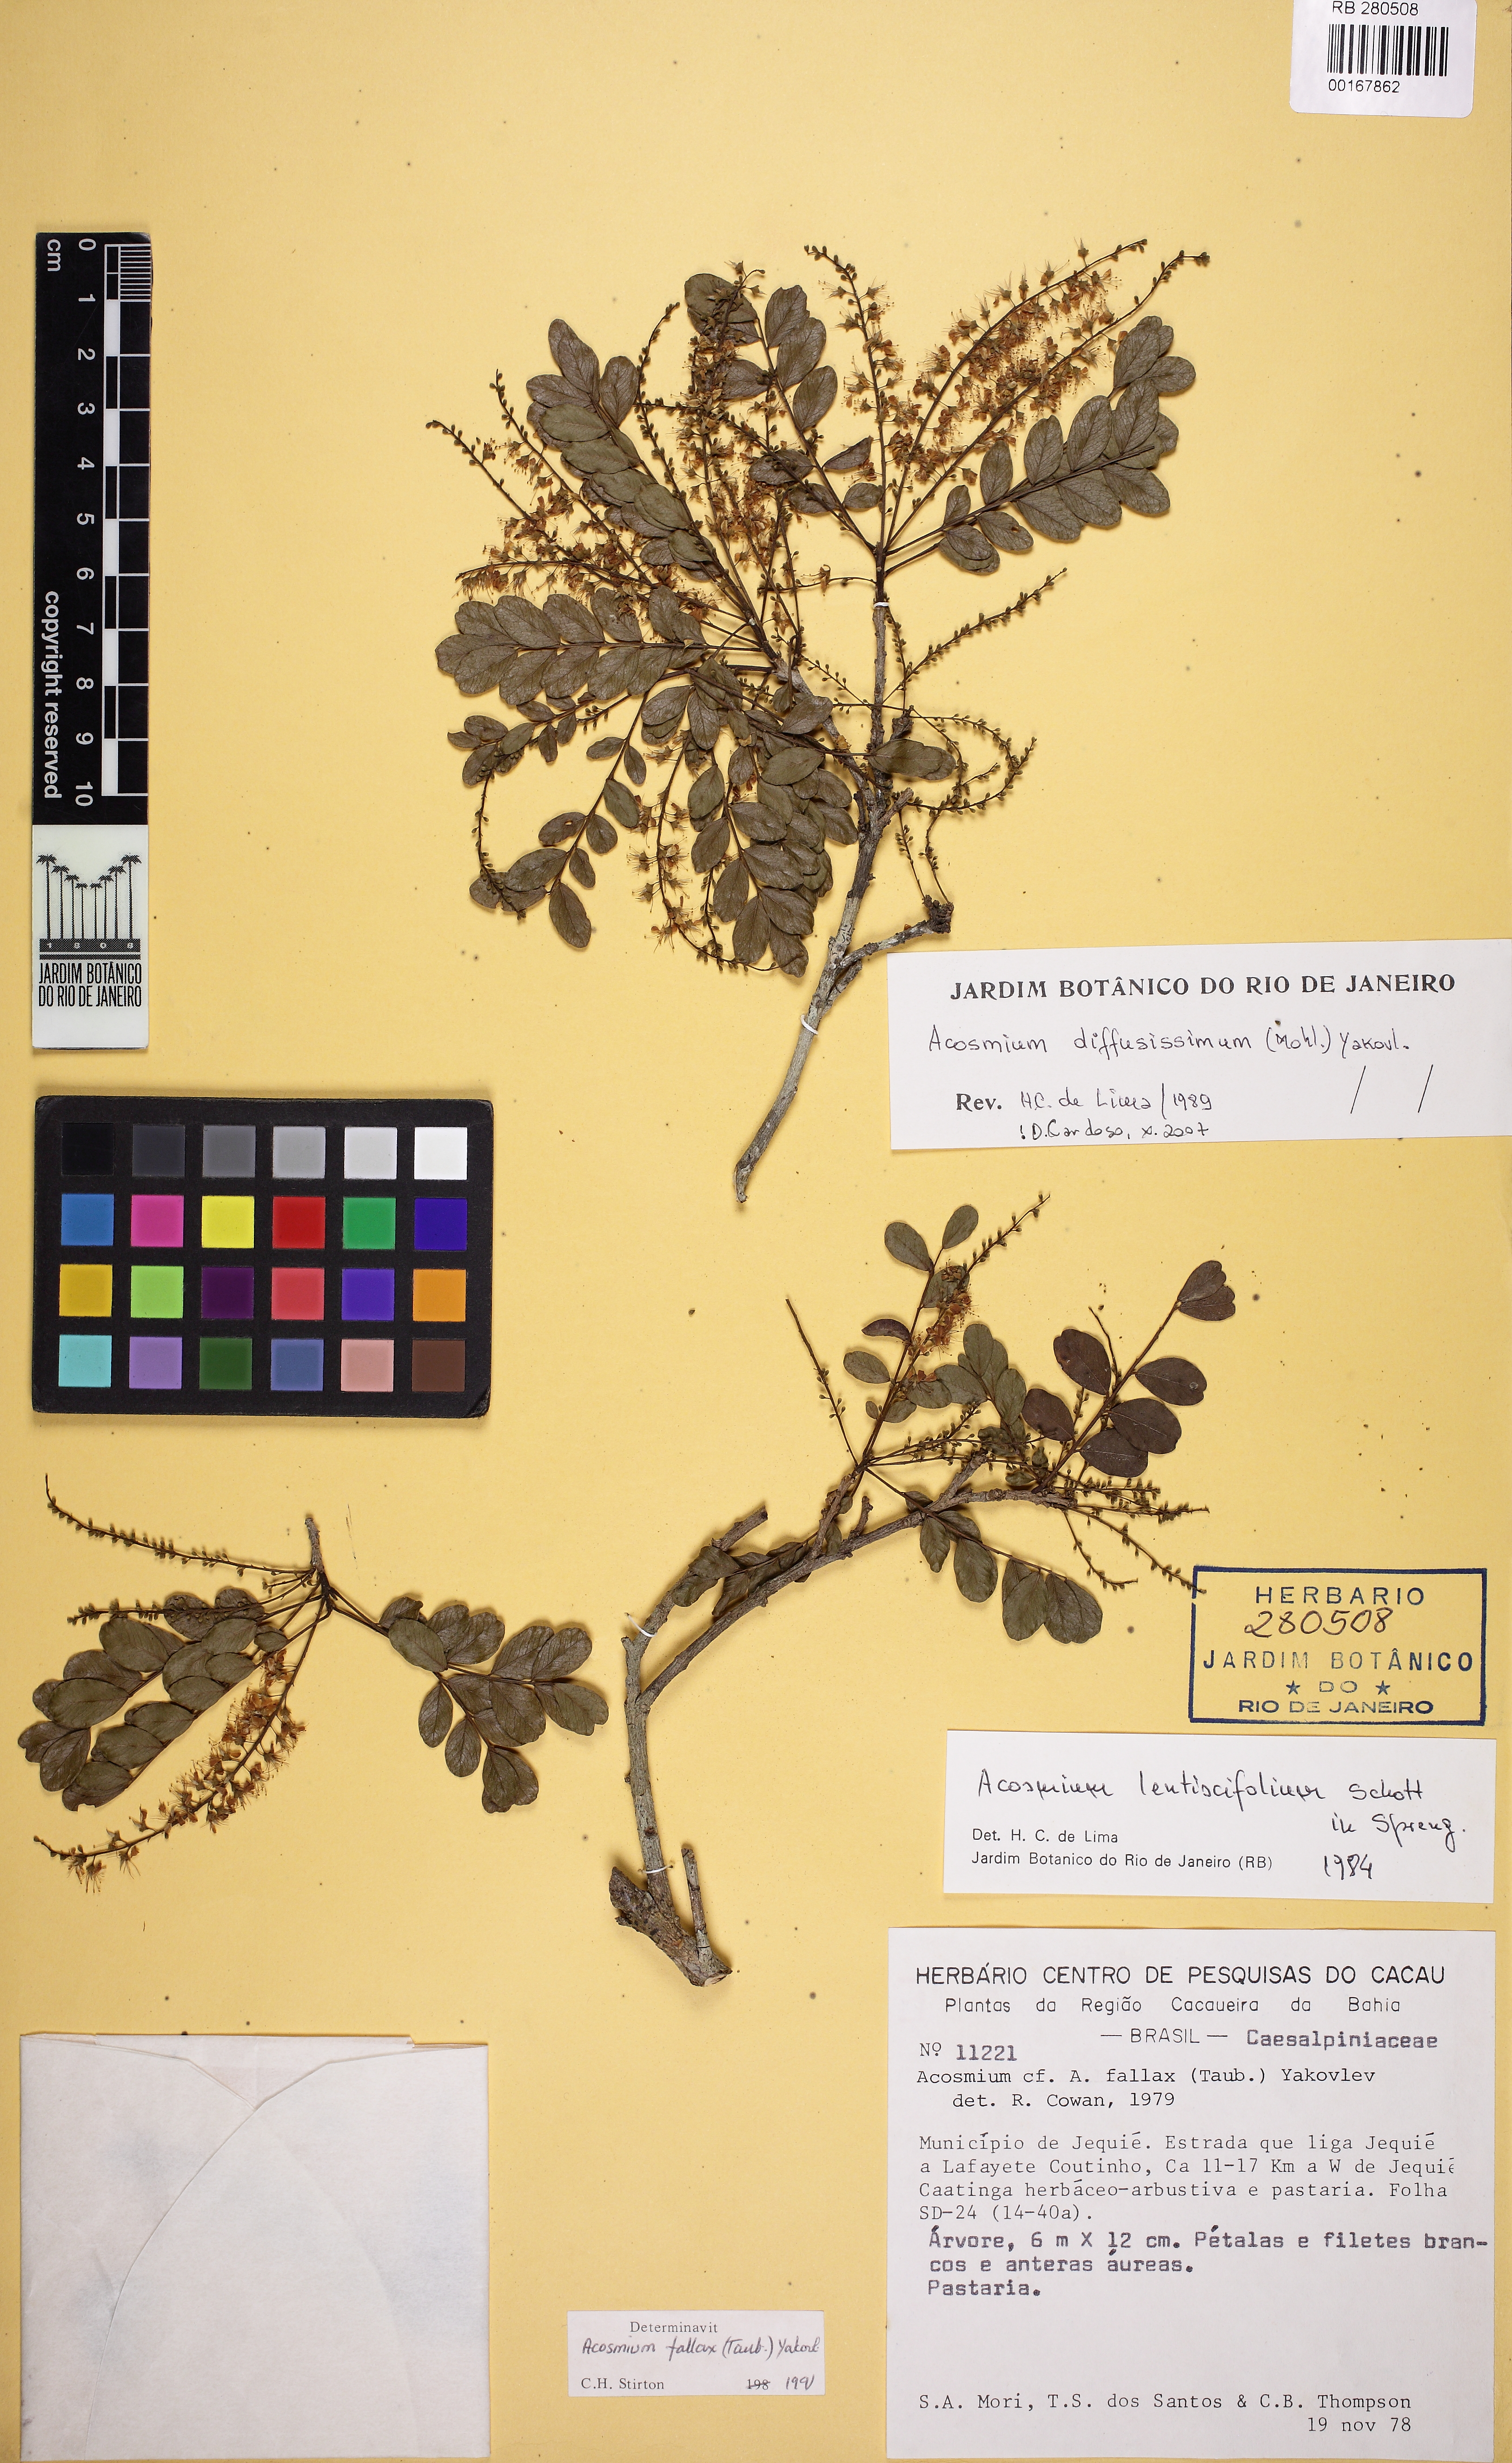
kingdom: Plantae
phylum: Tracheophyta
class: Magnoliopsida
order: Fabales
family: Fabaceae
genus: Acosmium
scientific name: Acosmium lentiscifolium
